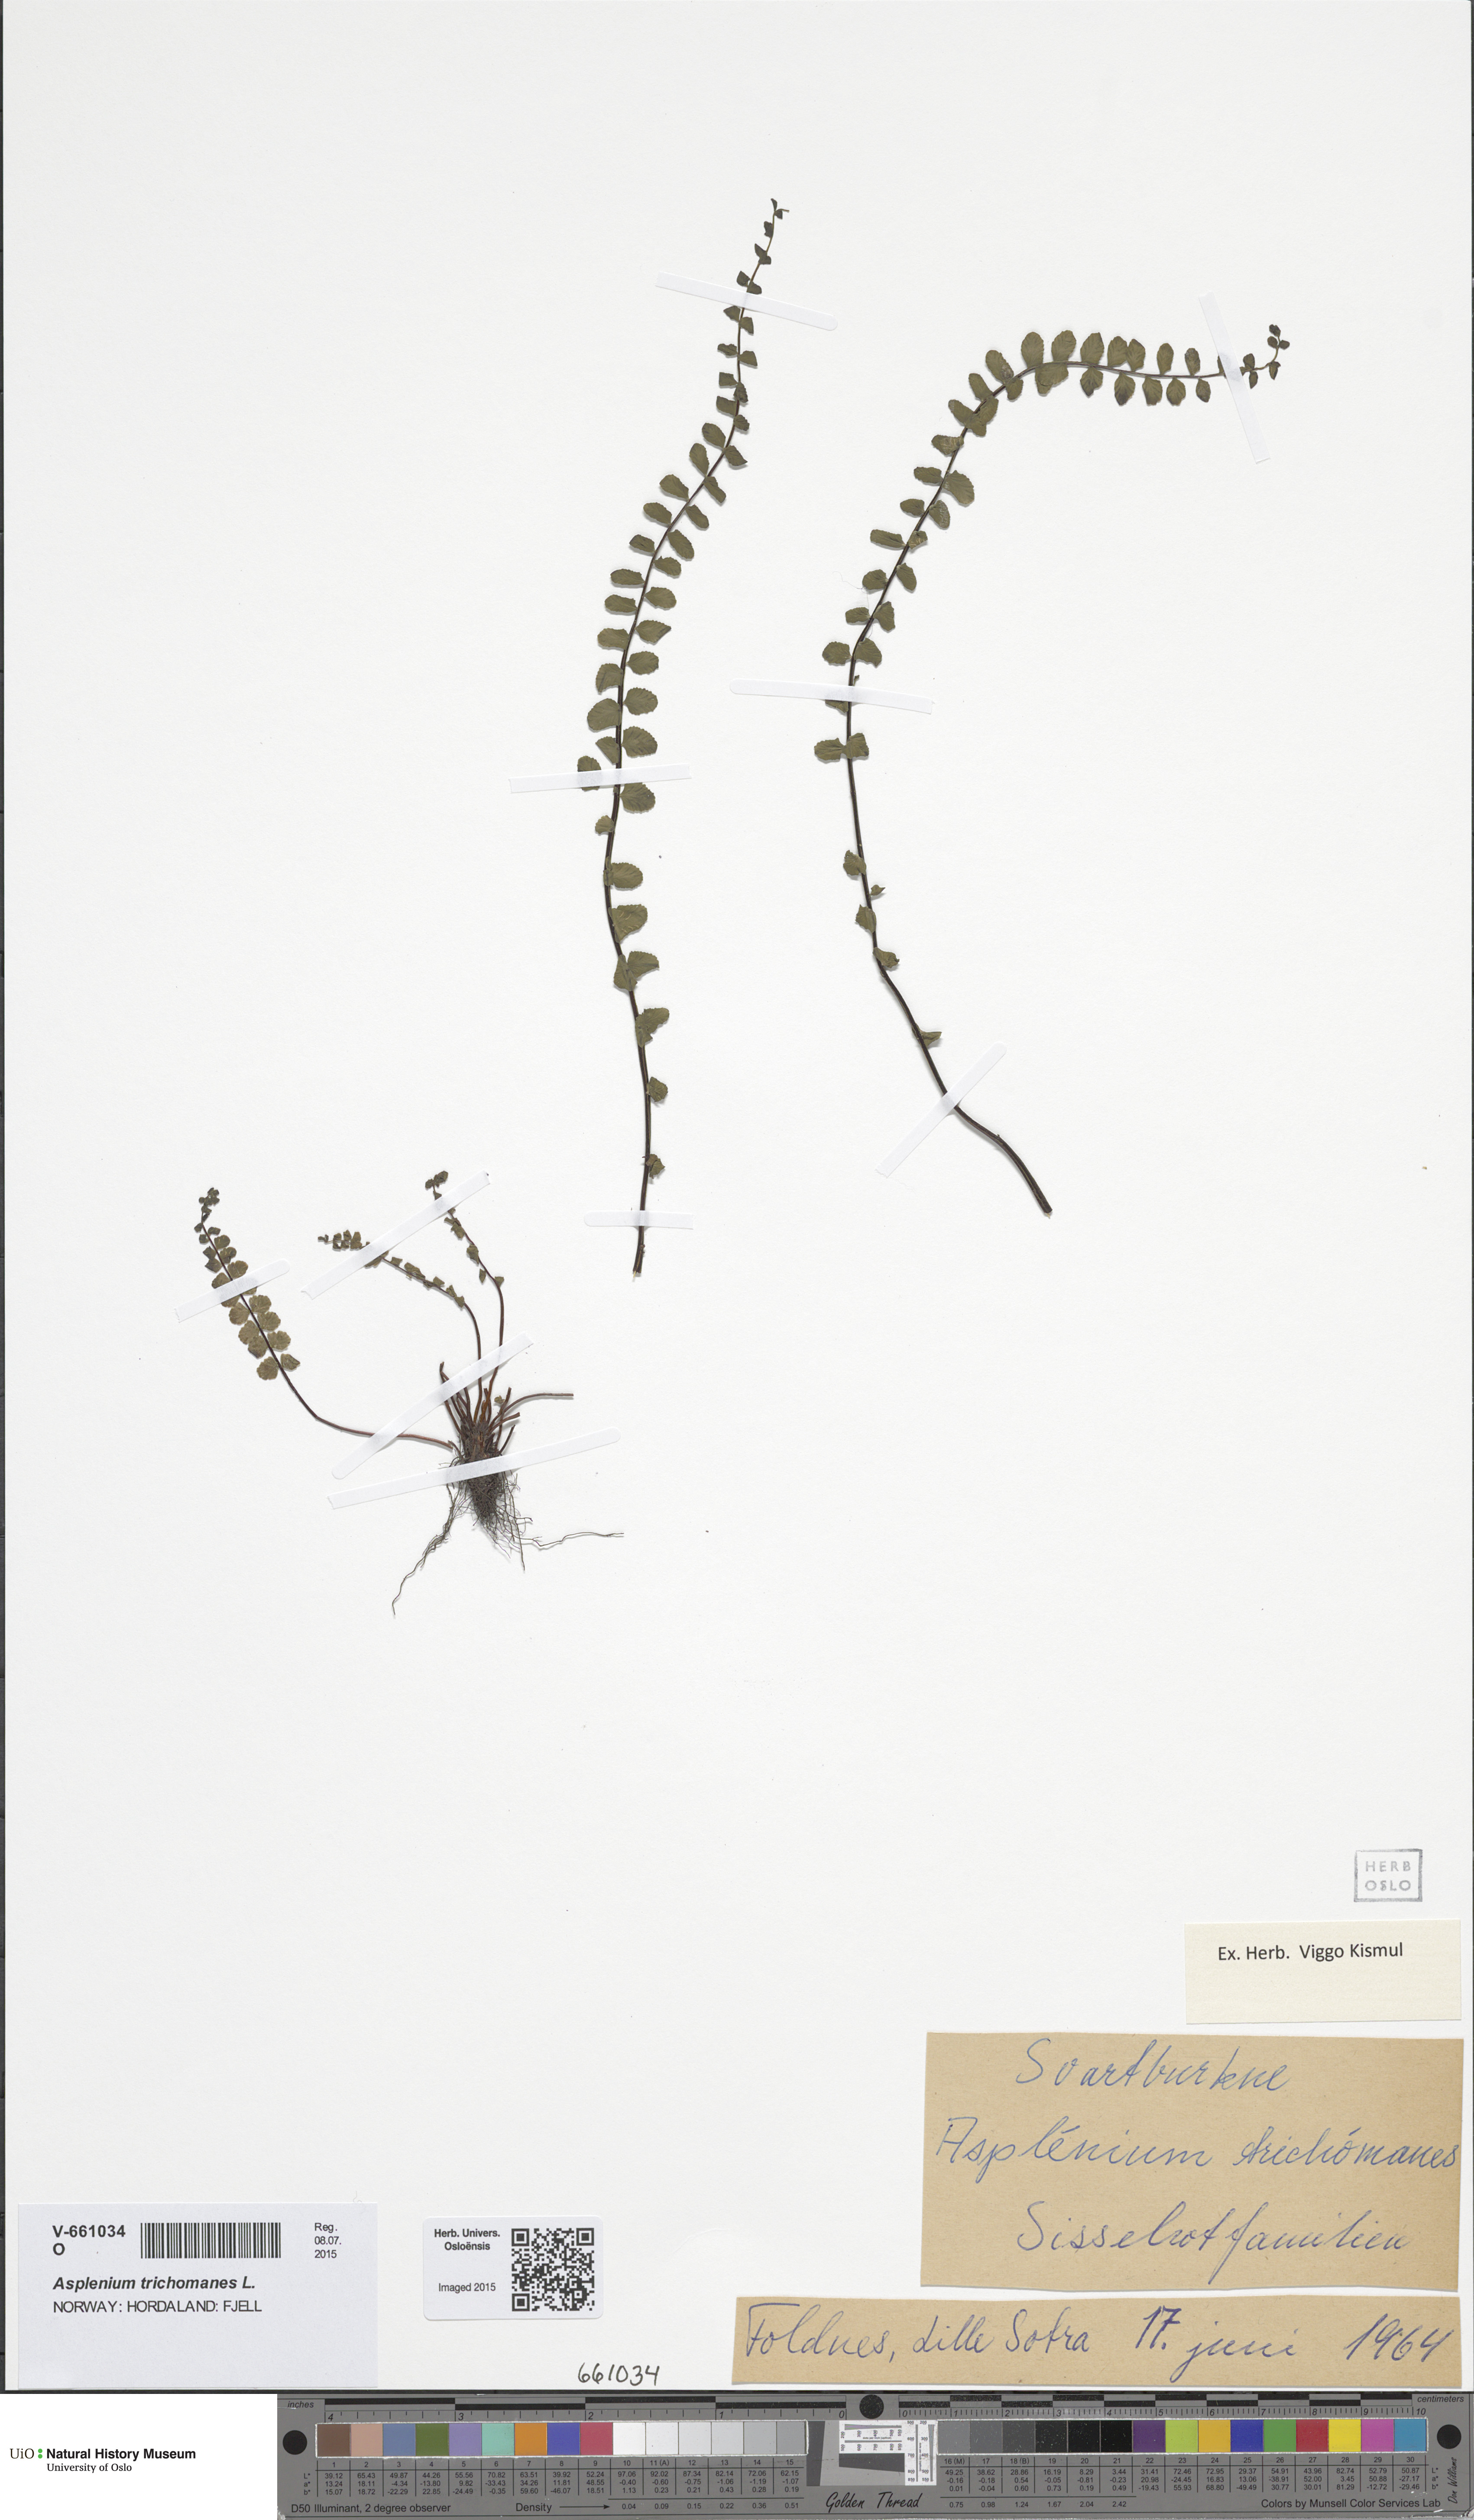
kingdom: Plantae
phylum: Tracheophyta
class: Polypodiopsida
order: Polypodiales
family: Aspleniaceae
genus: Asplenium
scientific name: Asplenium trichomanes
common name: Maidenhair spleenwort
